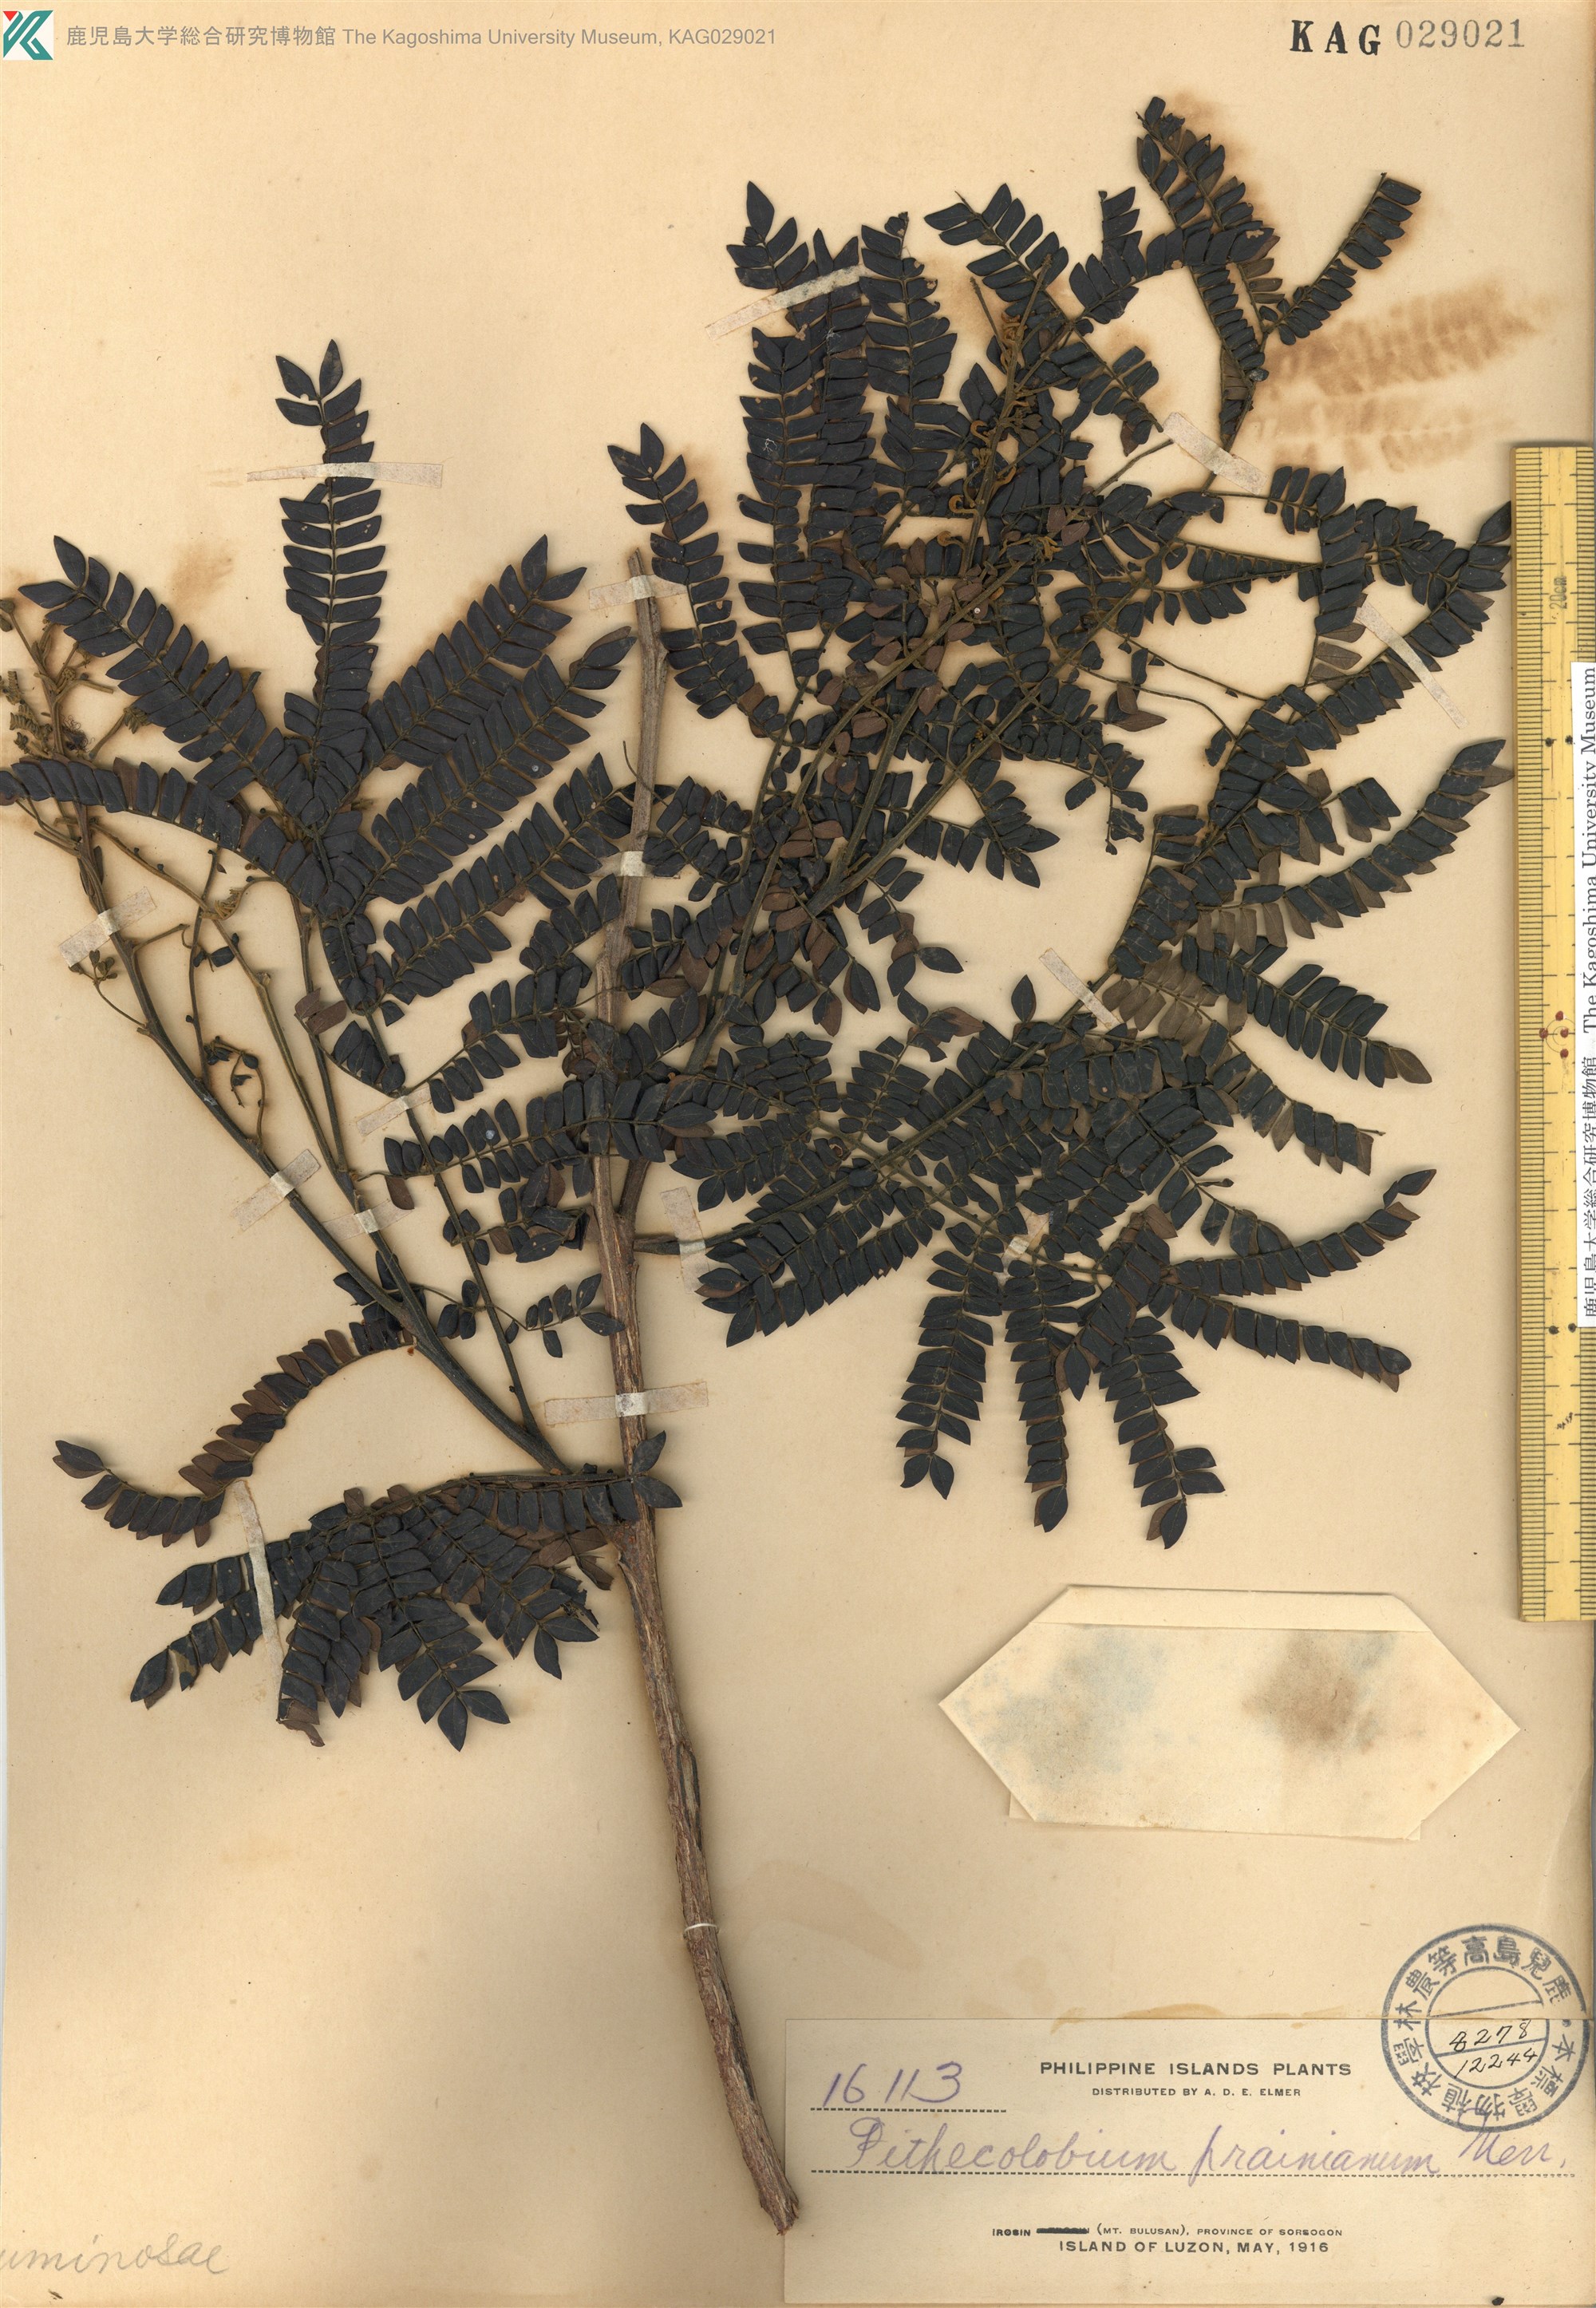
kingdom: Plantae
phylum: Tracheophyta
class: Magnoliopsida
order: Fabales
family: Fabaceae
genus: Pithecellobium
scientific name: Pithecellobium
